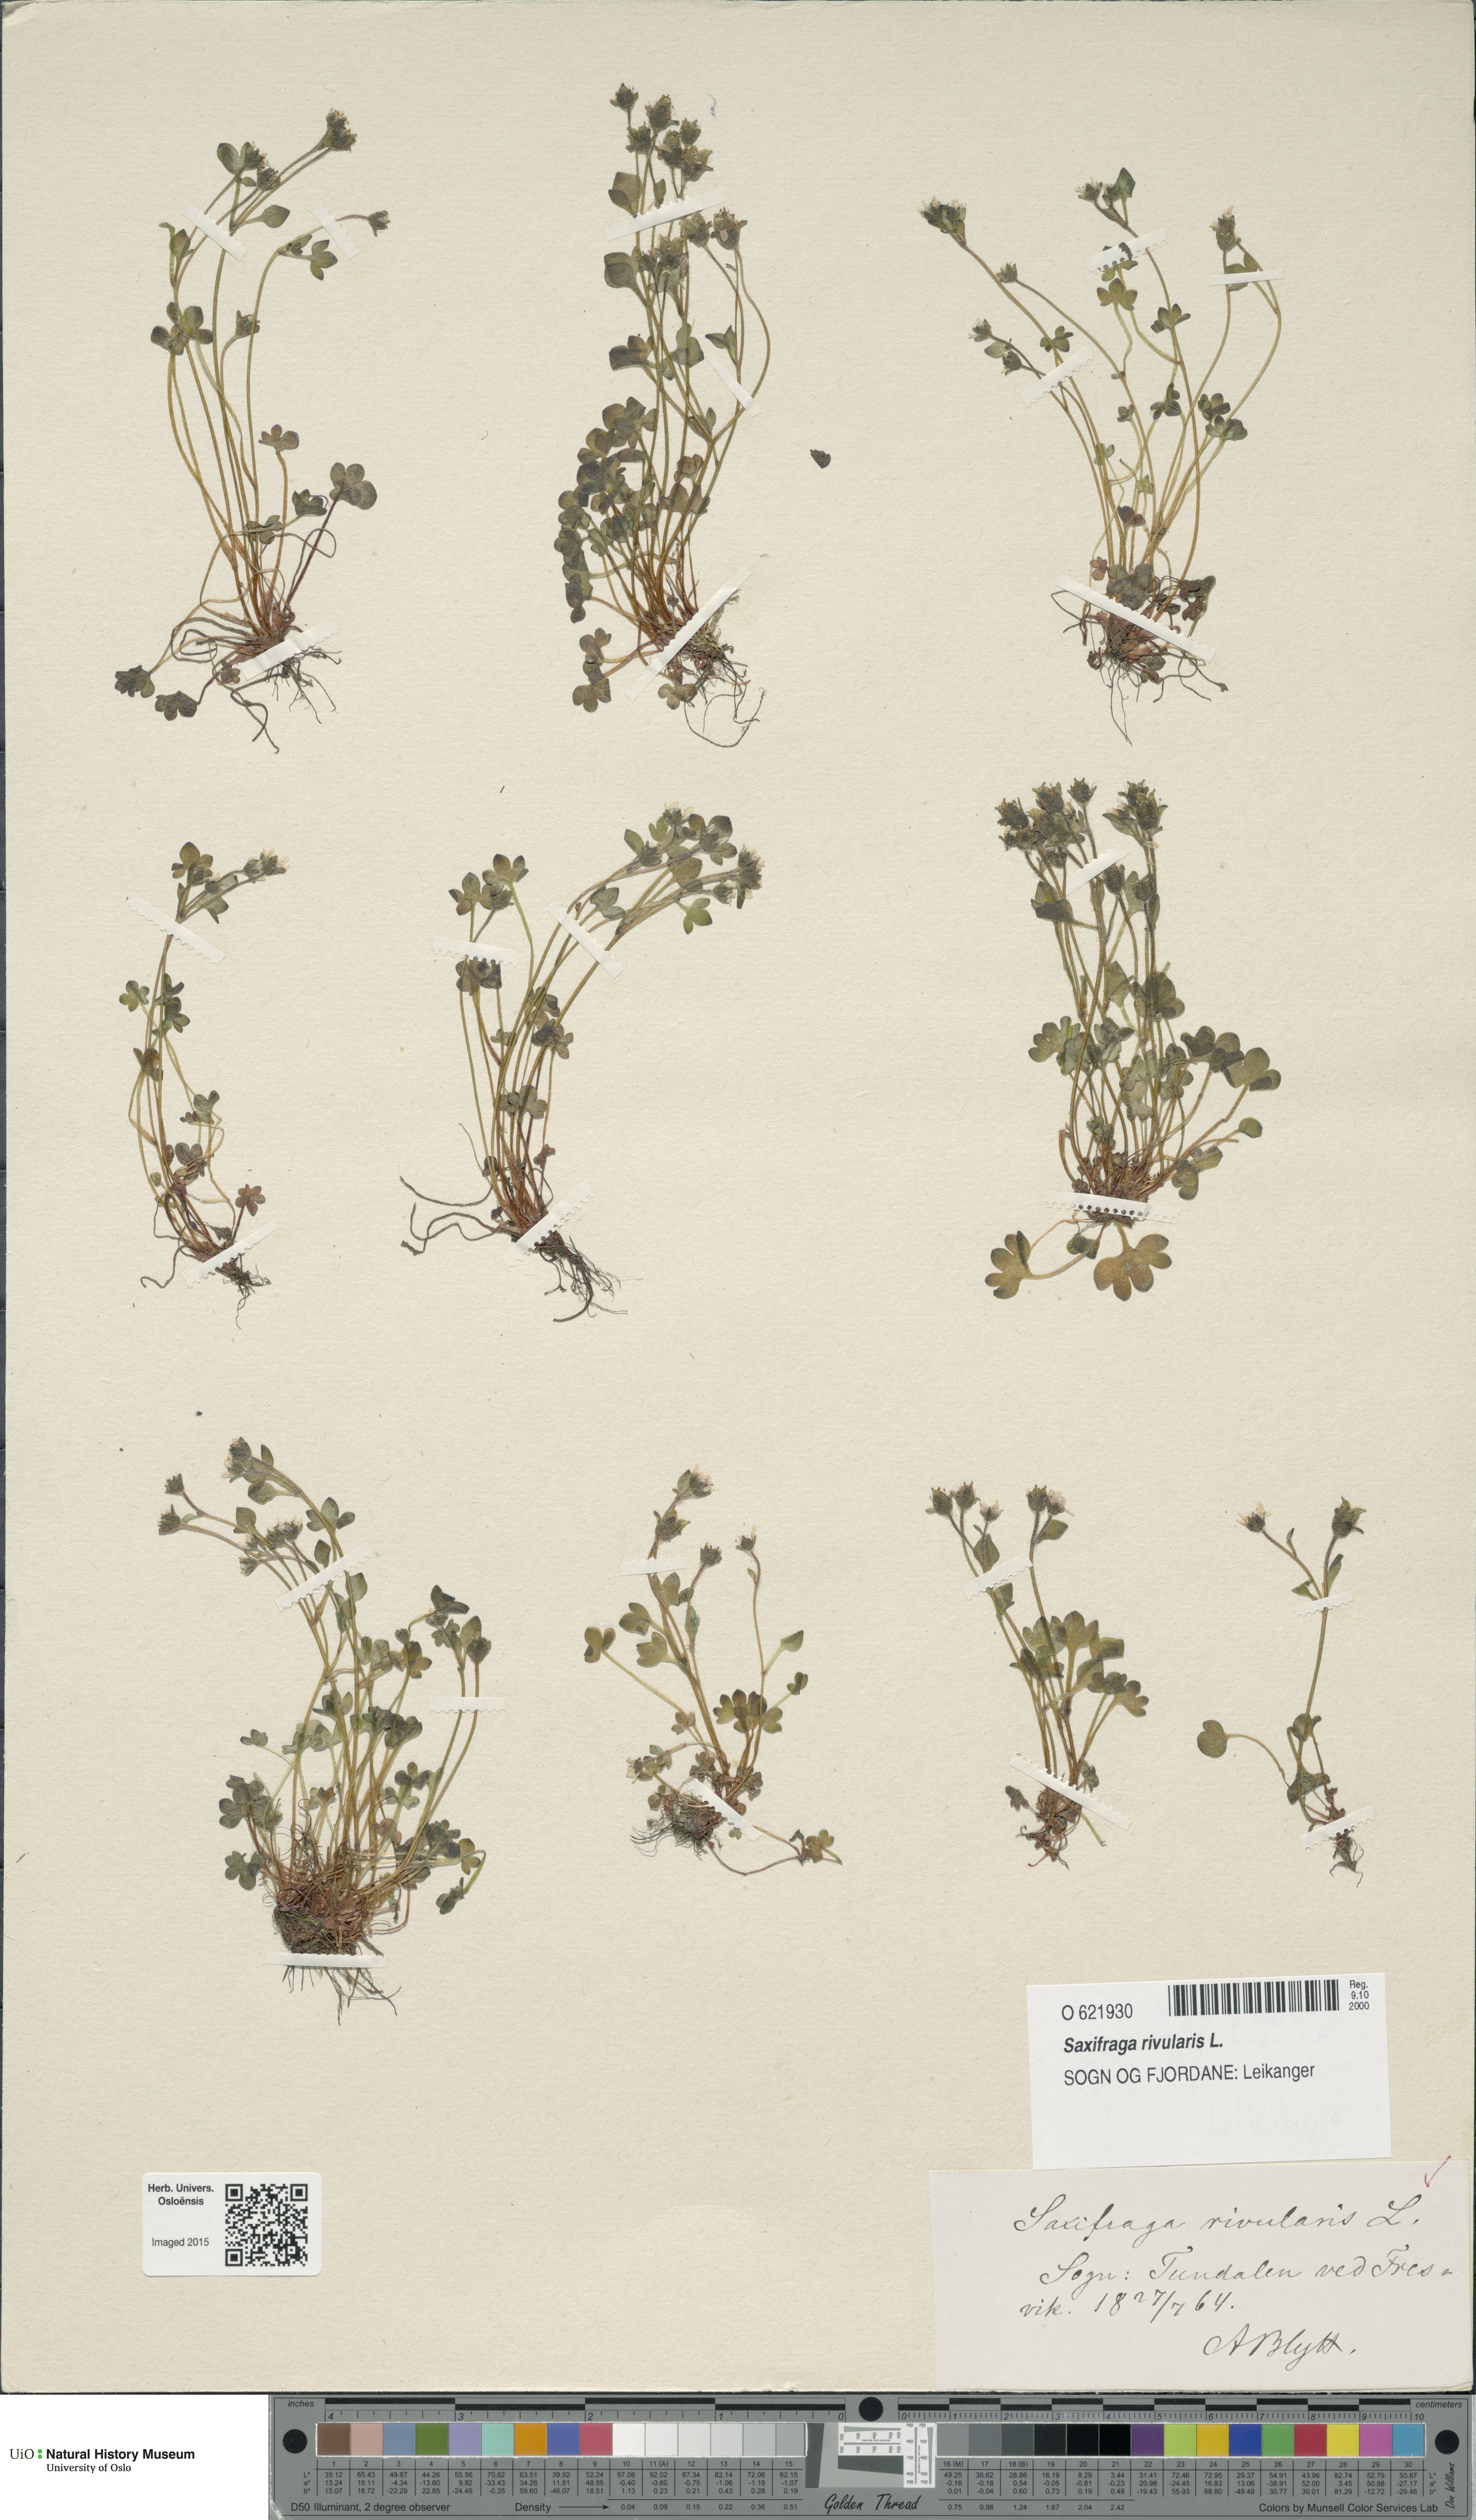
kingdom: Plantae
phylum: Tracheophyta
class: Magnoliopsida
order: Saxifragales
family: Saxifragaceae
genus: Saxifraga
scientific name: Saxifraga rivularis
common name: Highland saxifrage
